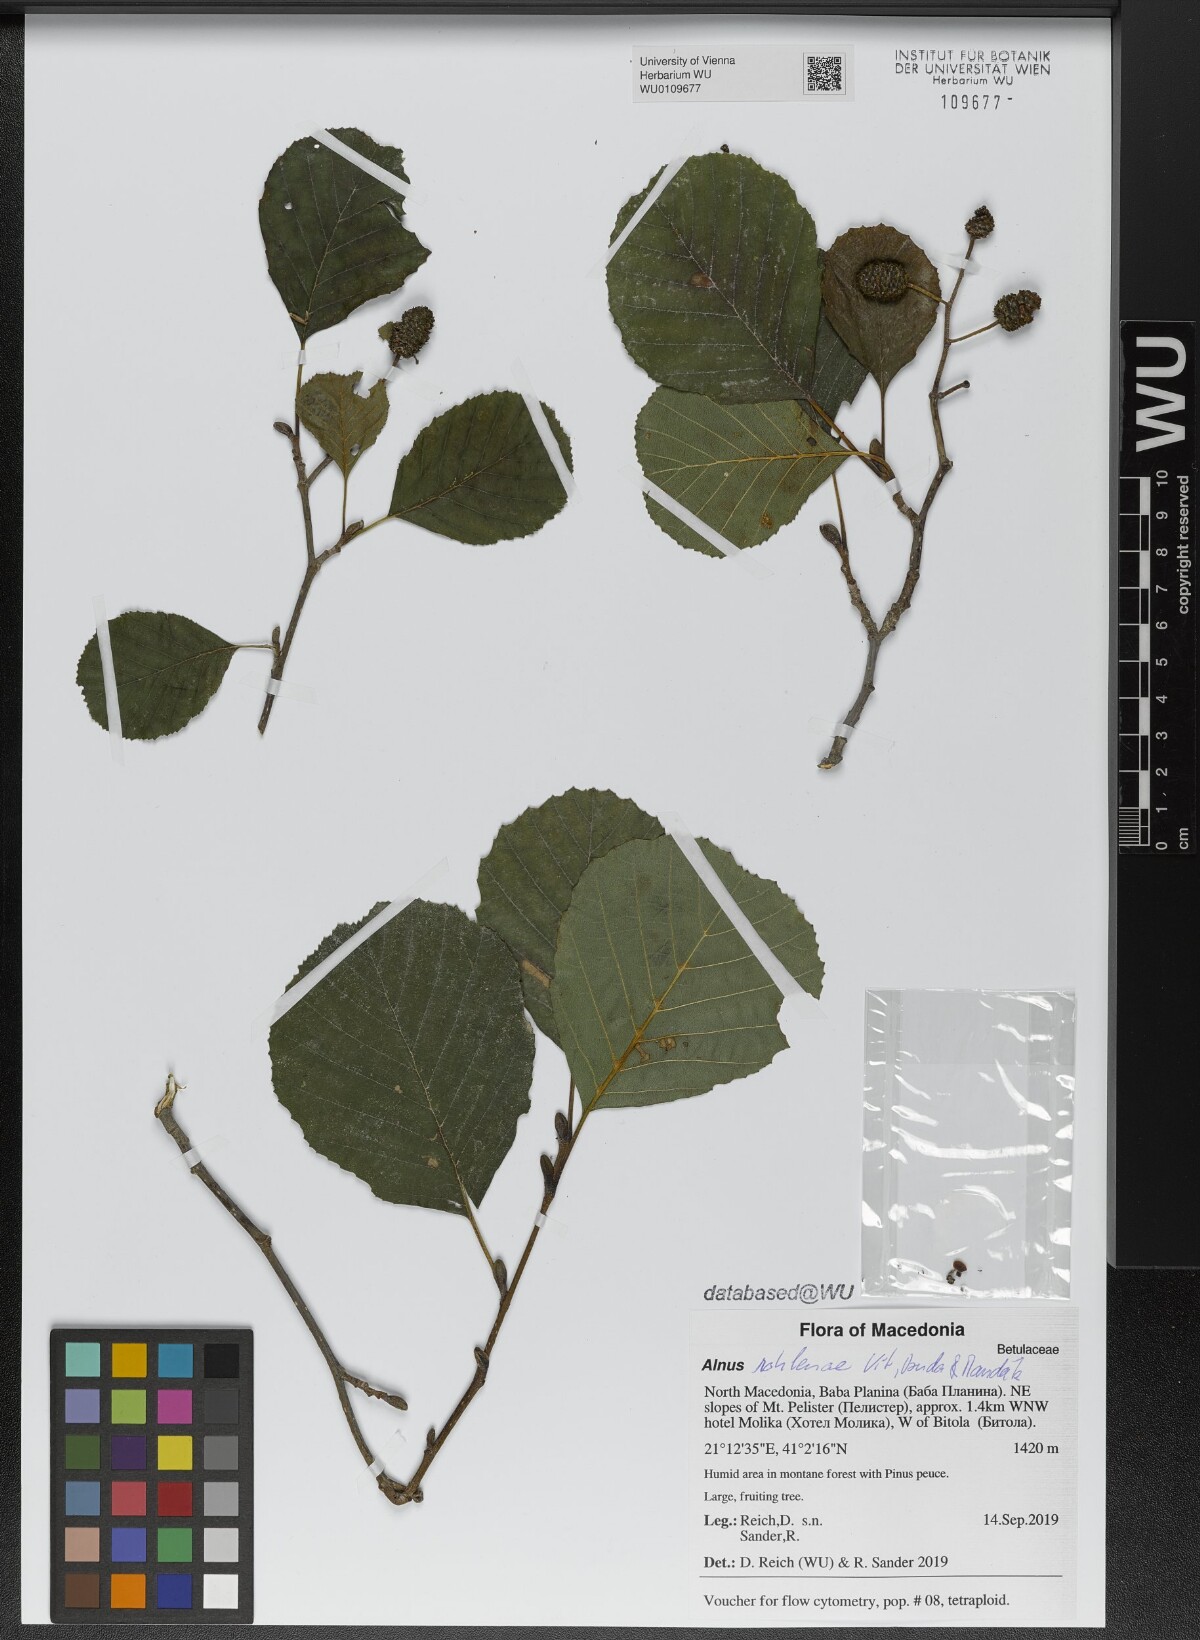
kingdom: Plantae
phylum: Tracheophyta
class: Magnoliopsida
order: Fagales
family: Betulaceae
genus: Alnus
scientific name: Alnus rohlenae
